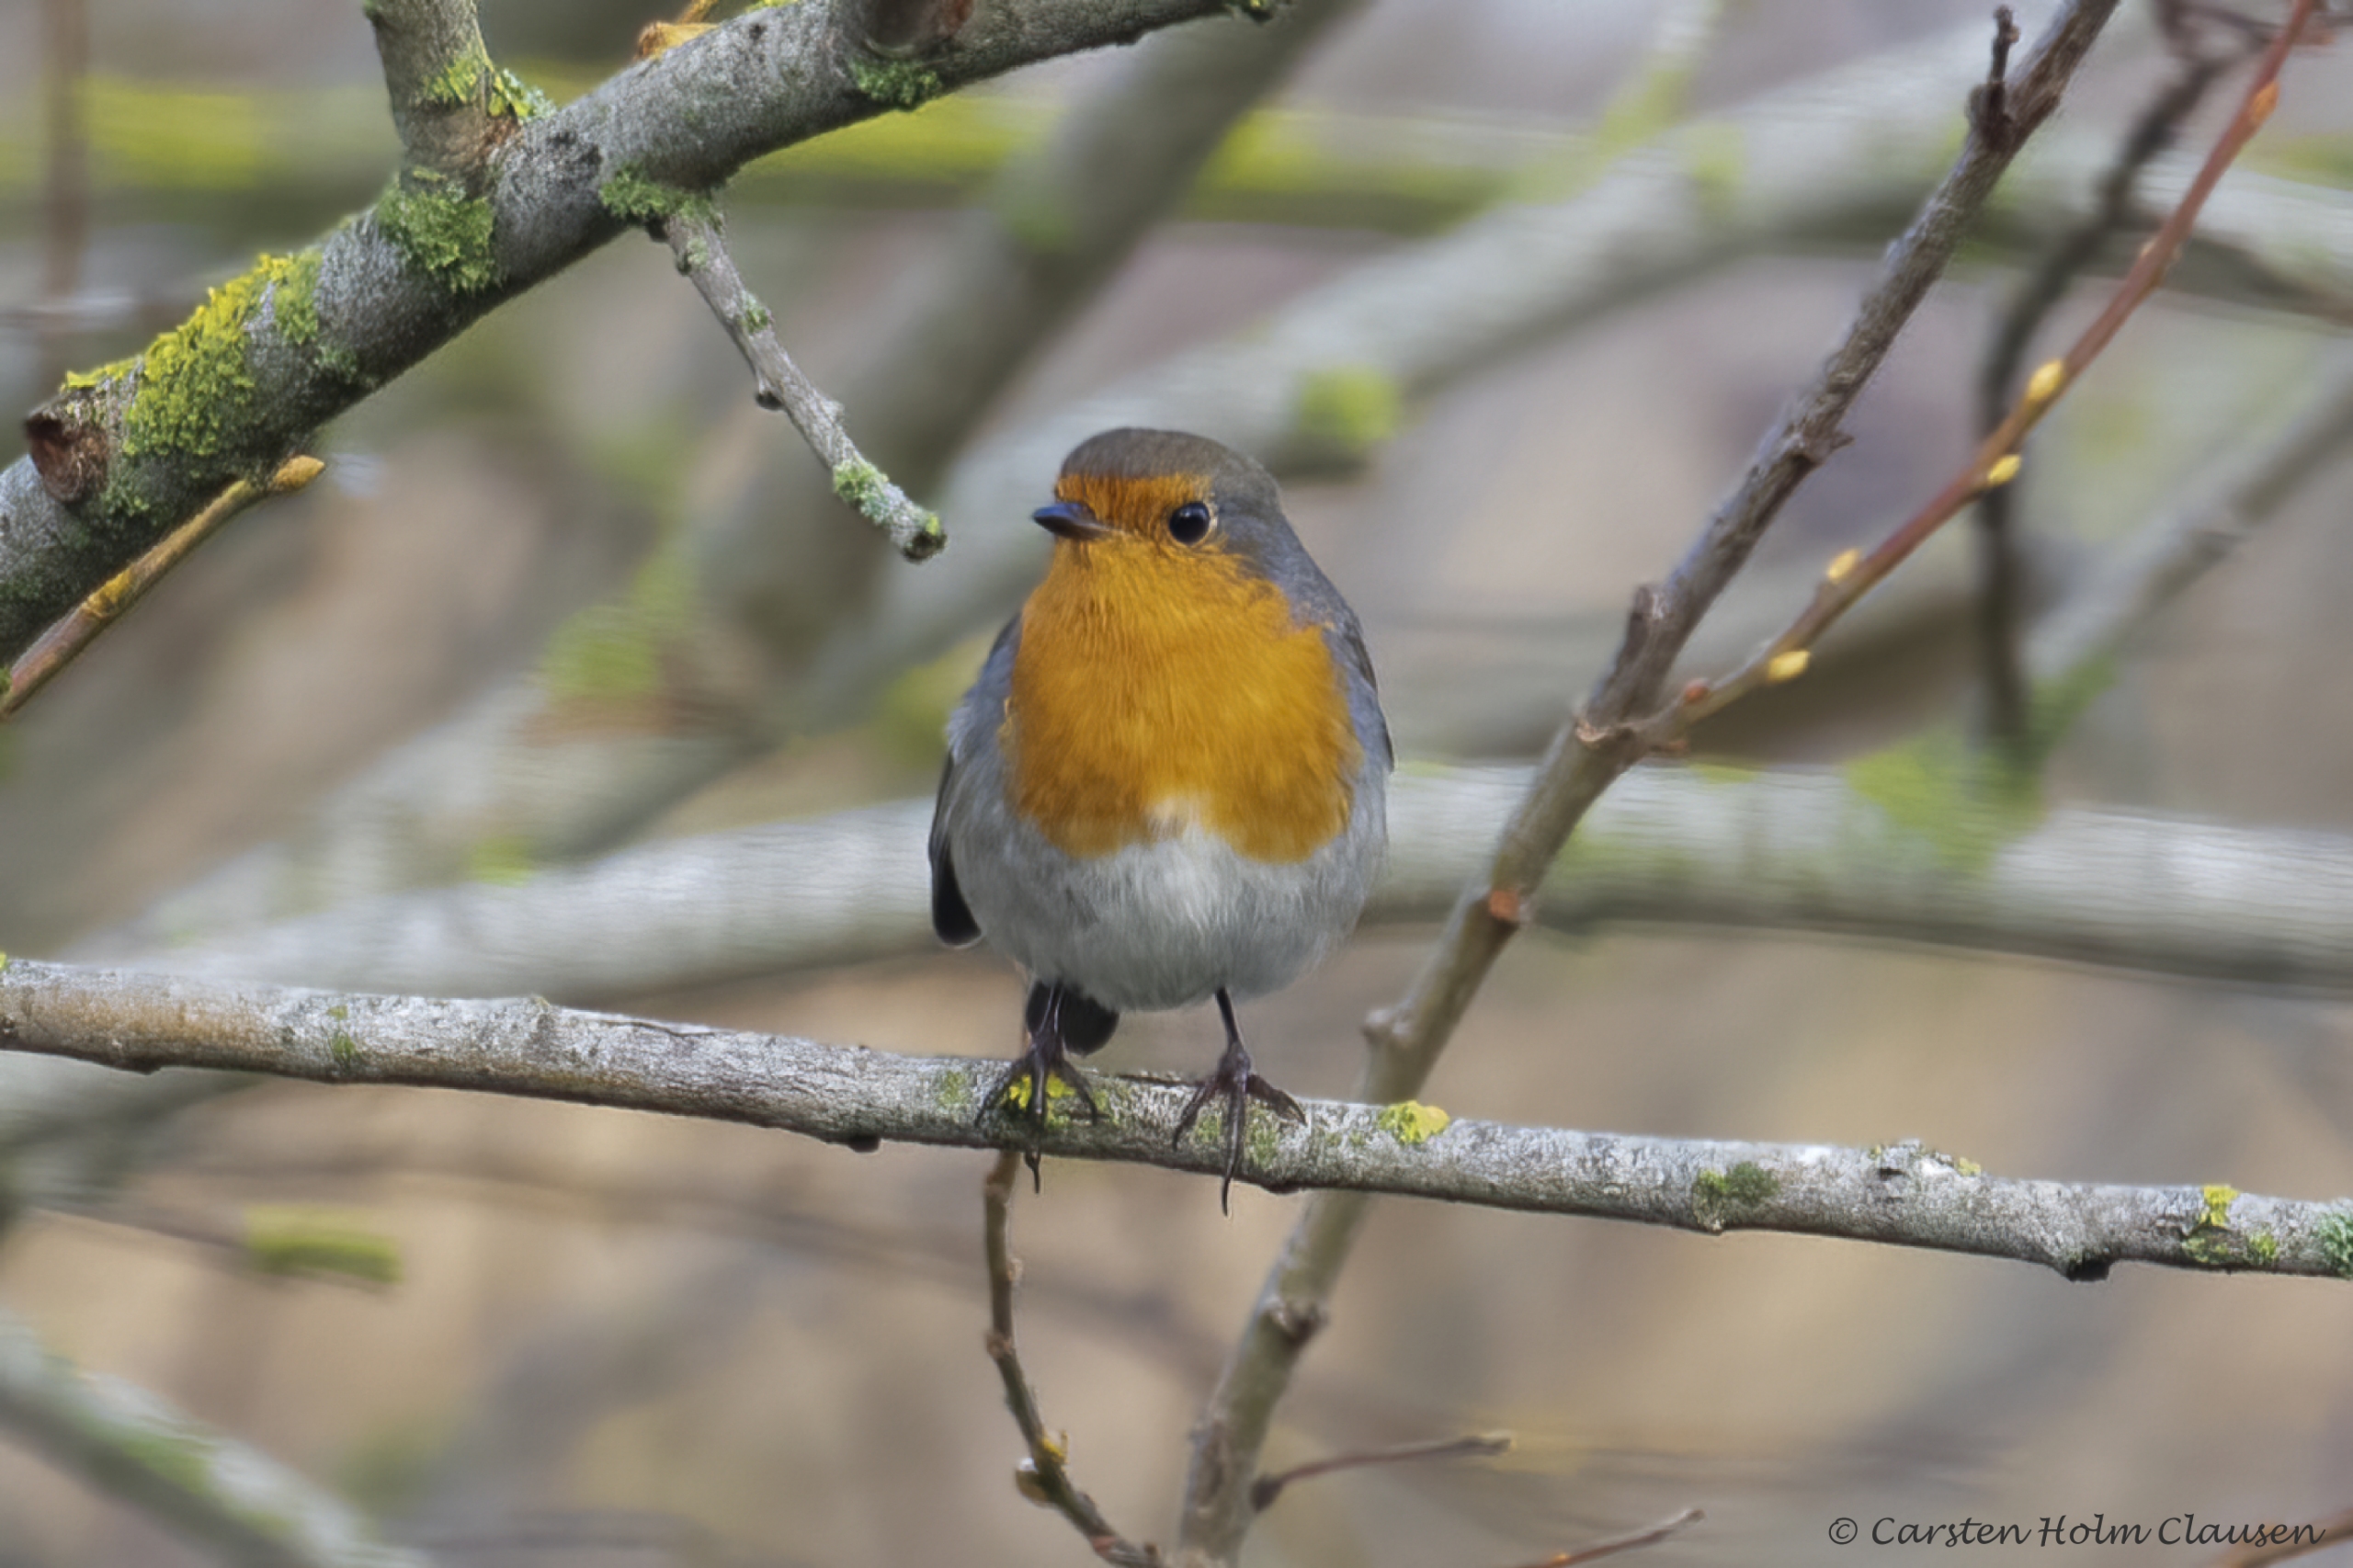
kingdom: Animalia
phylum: Chordata
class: Aves
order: Passeriformes
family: Muscicapidae
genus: Erithacus
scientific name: Erithacus rubecula
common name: Rødhals/rødkælk
